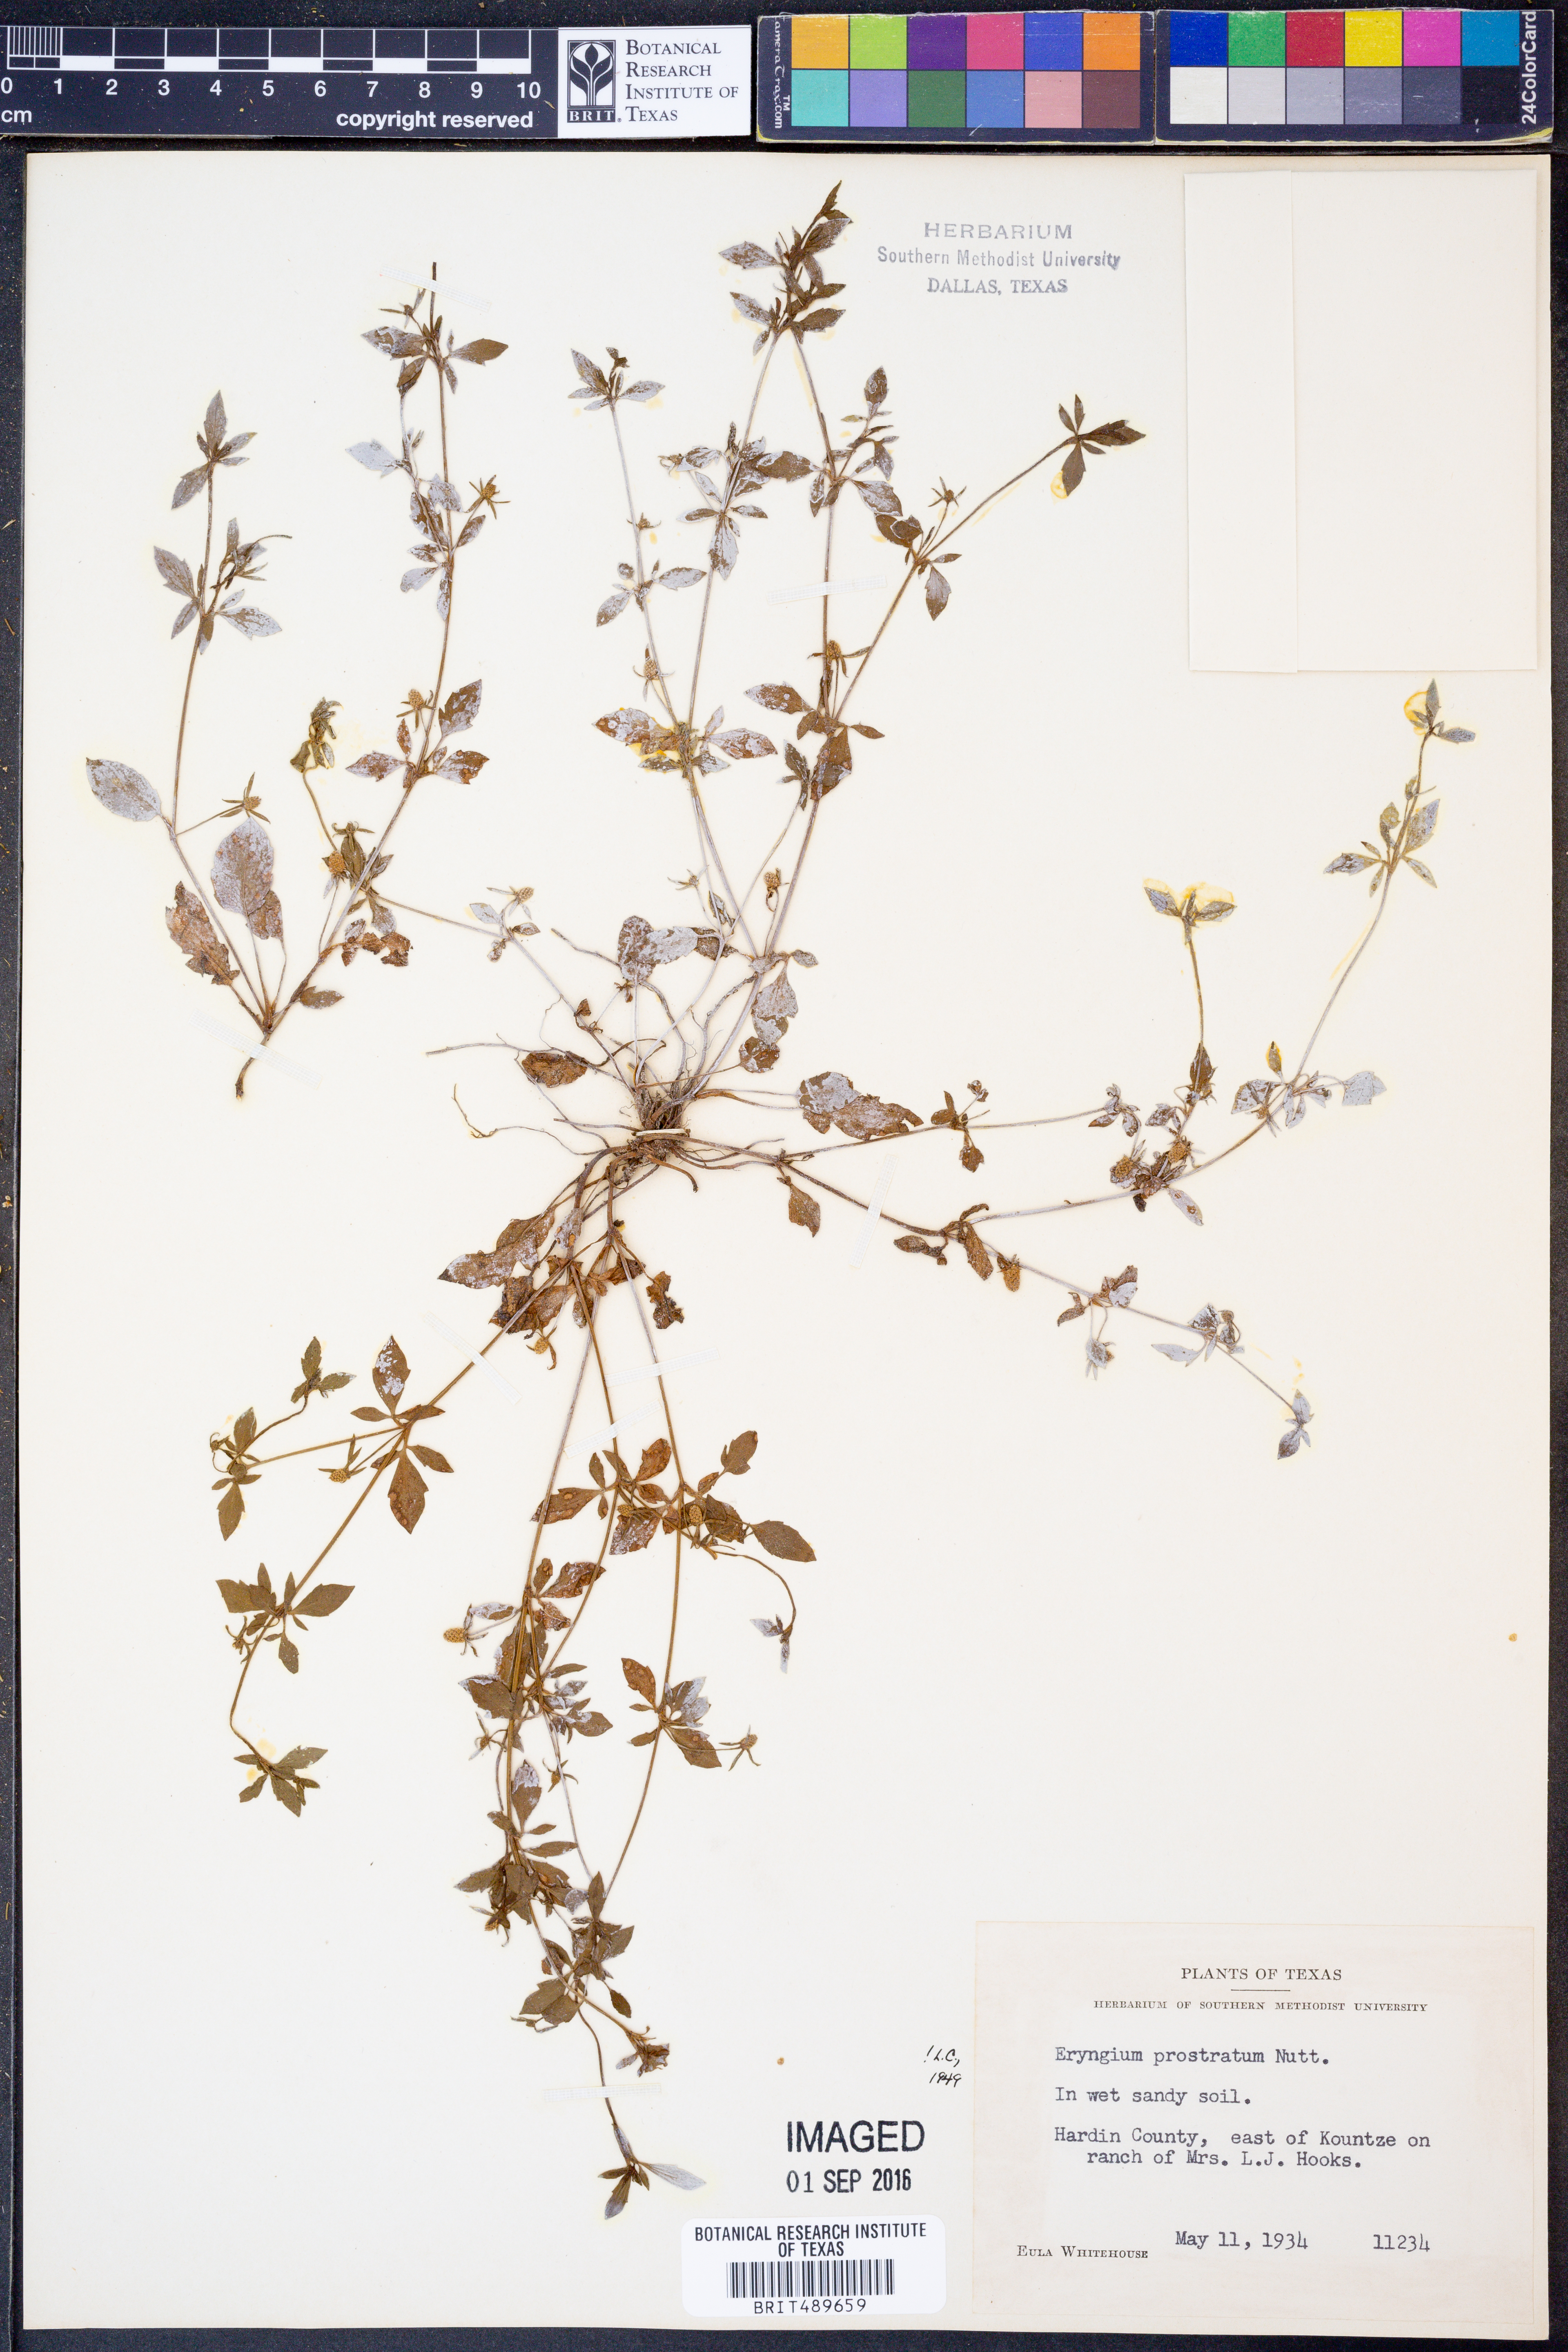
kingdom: Plantae
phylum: Tracheophyta
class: Magnoliopsida
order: Apiales
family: Apiaceae
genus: Eryngium
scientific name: Eryngium prostratum
